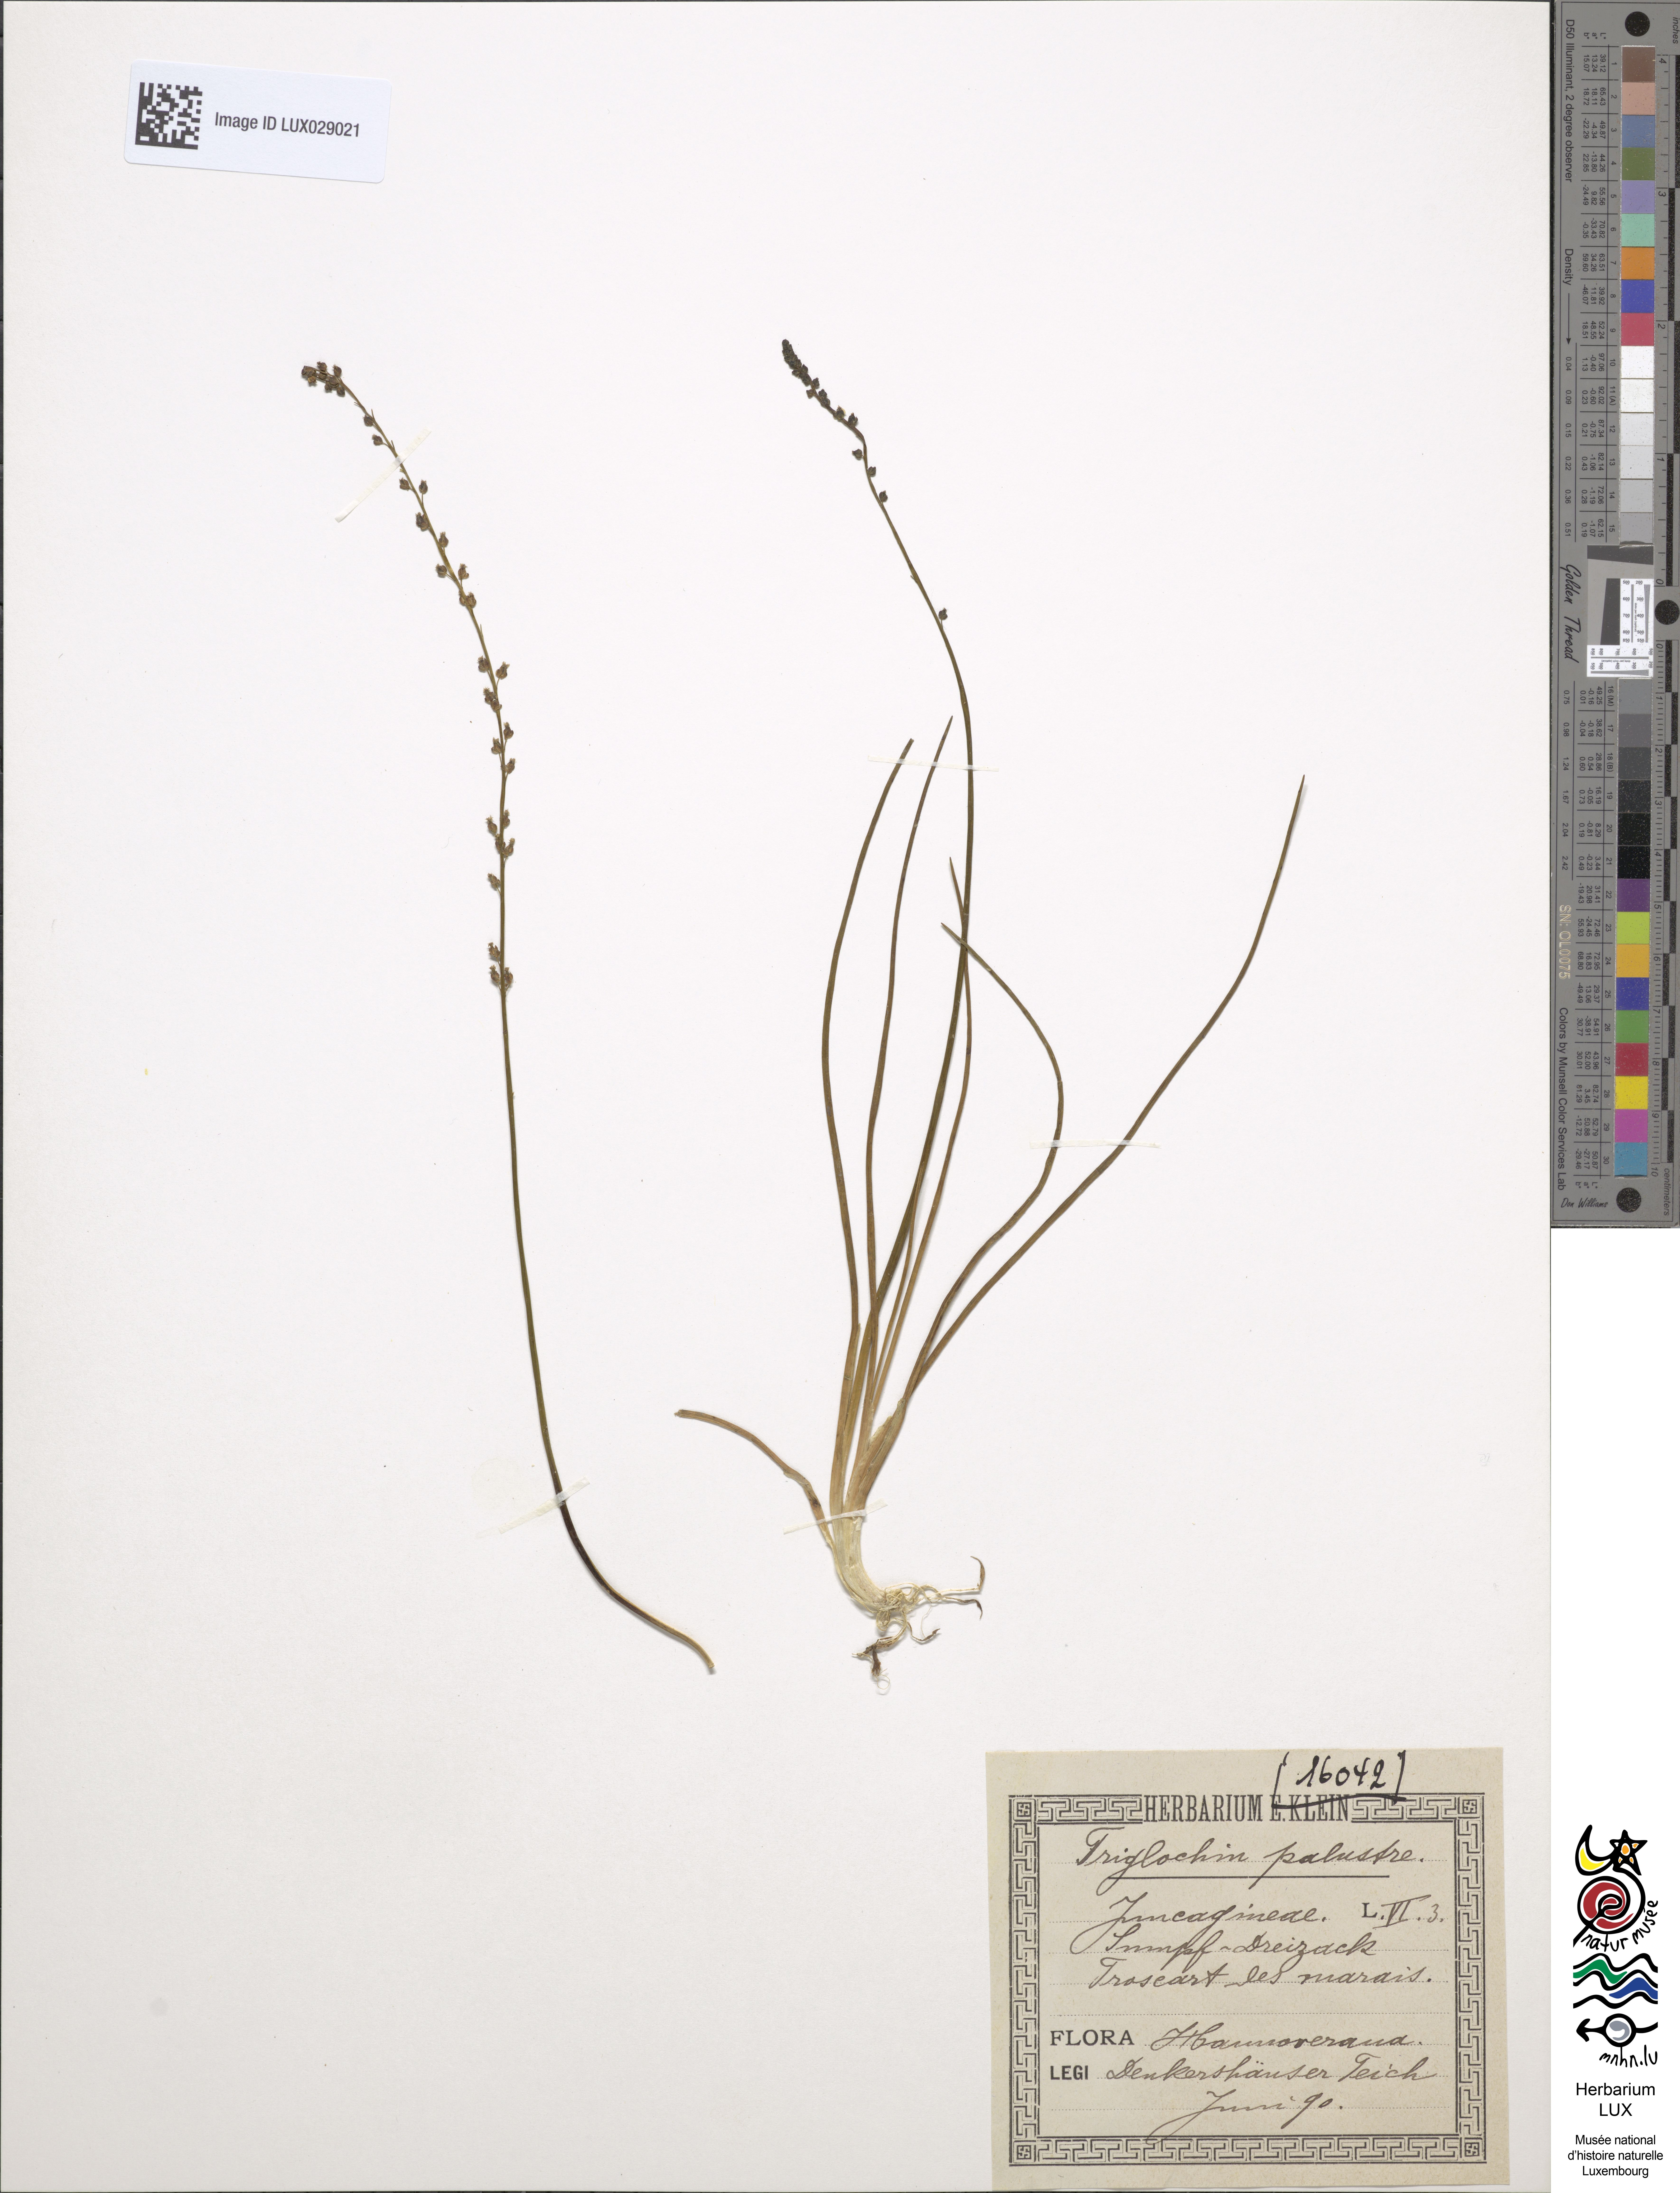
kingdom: Plantae
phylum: Tracheophyta
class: Liliopsida
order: Alismatales
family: Juncaginaceae
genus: Triglochin
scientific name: Triglochin palustris
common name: Marsh arrowgrass
